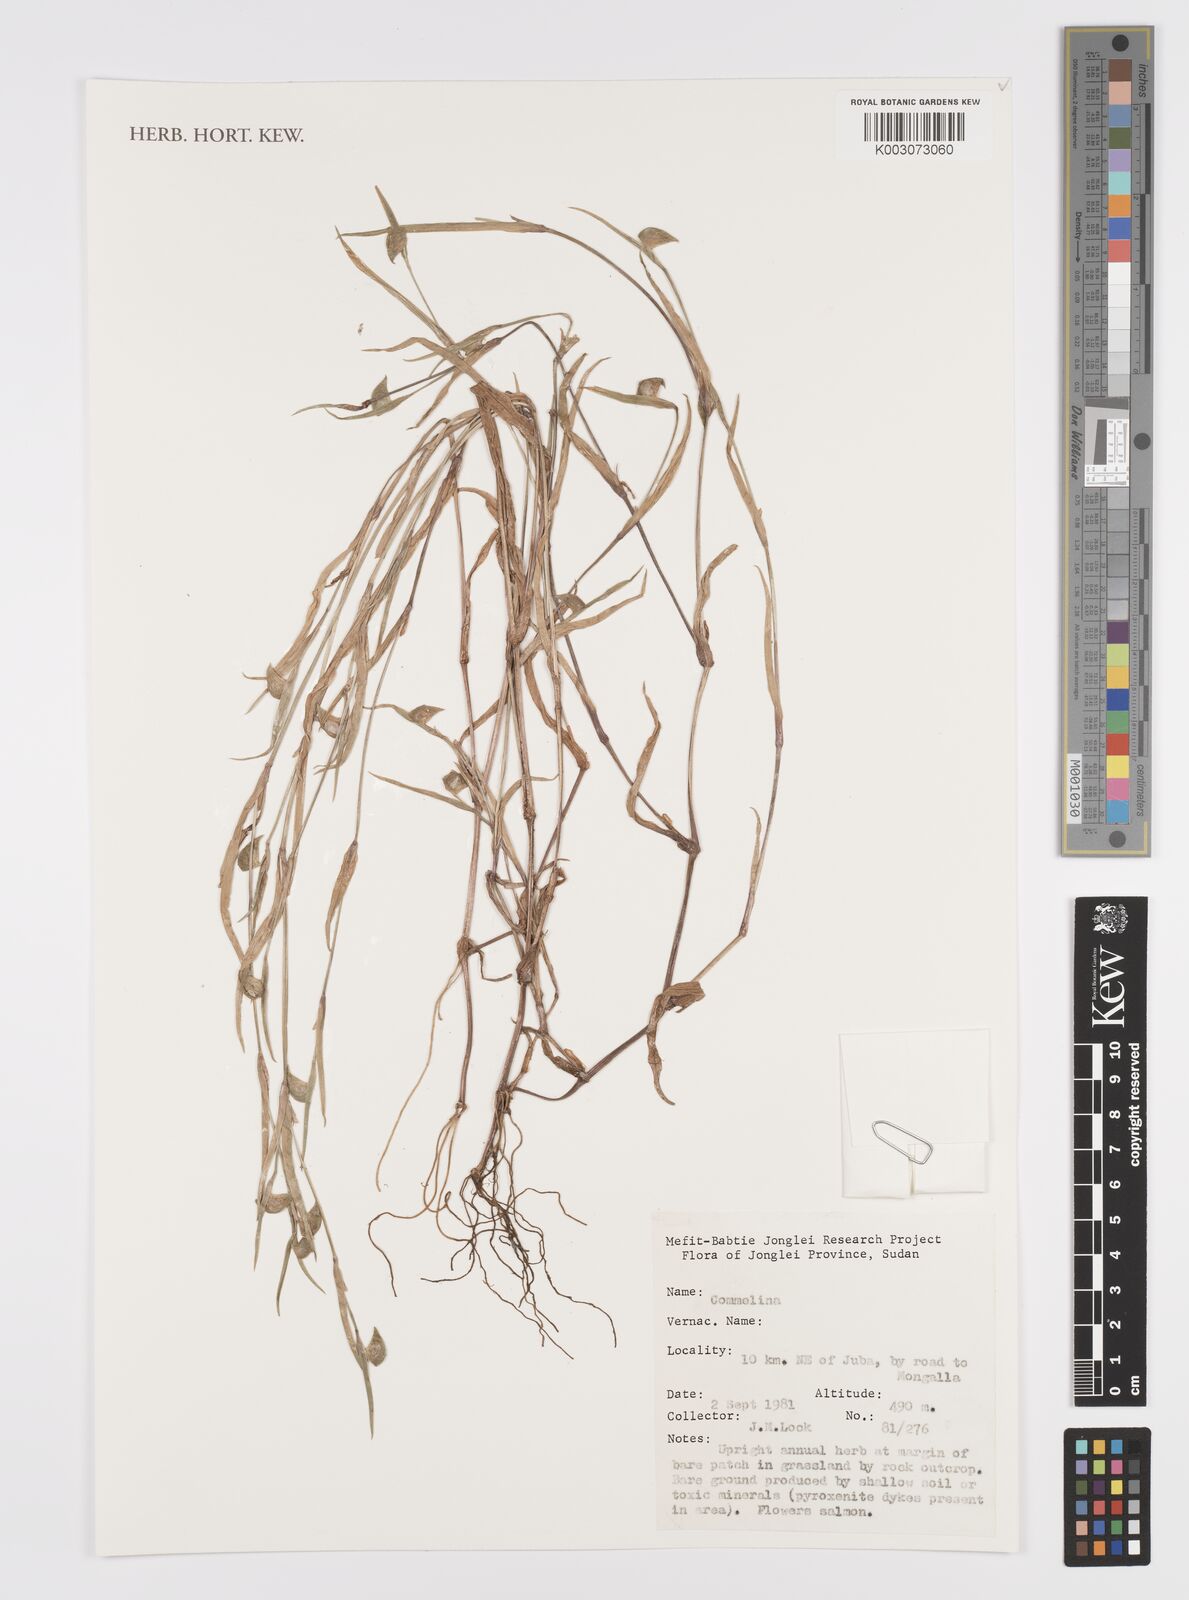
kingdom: Plantae
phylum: Tracheophyta
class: Liliopsida
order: Commelinales
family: Commelinaceae
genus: Commelina
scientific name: Commelina
